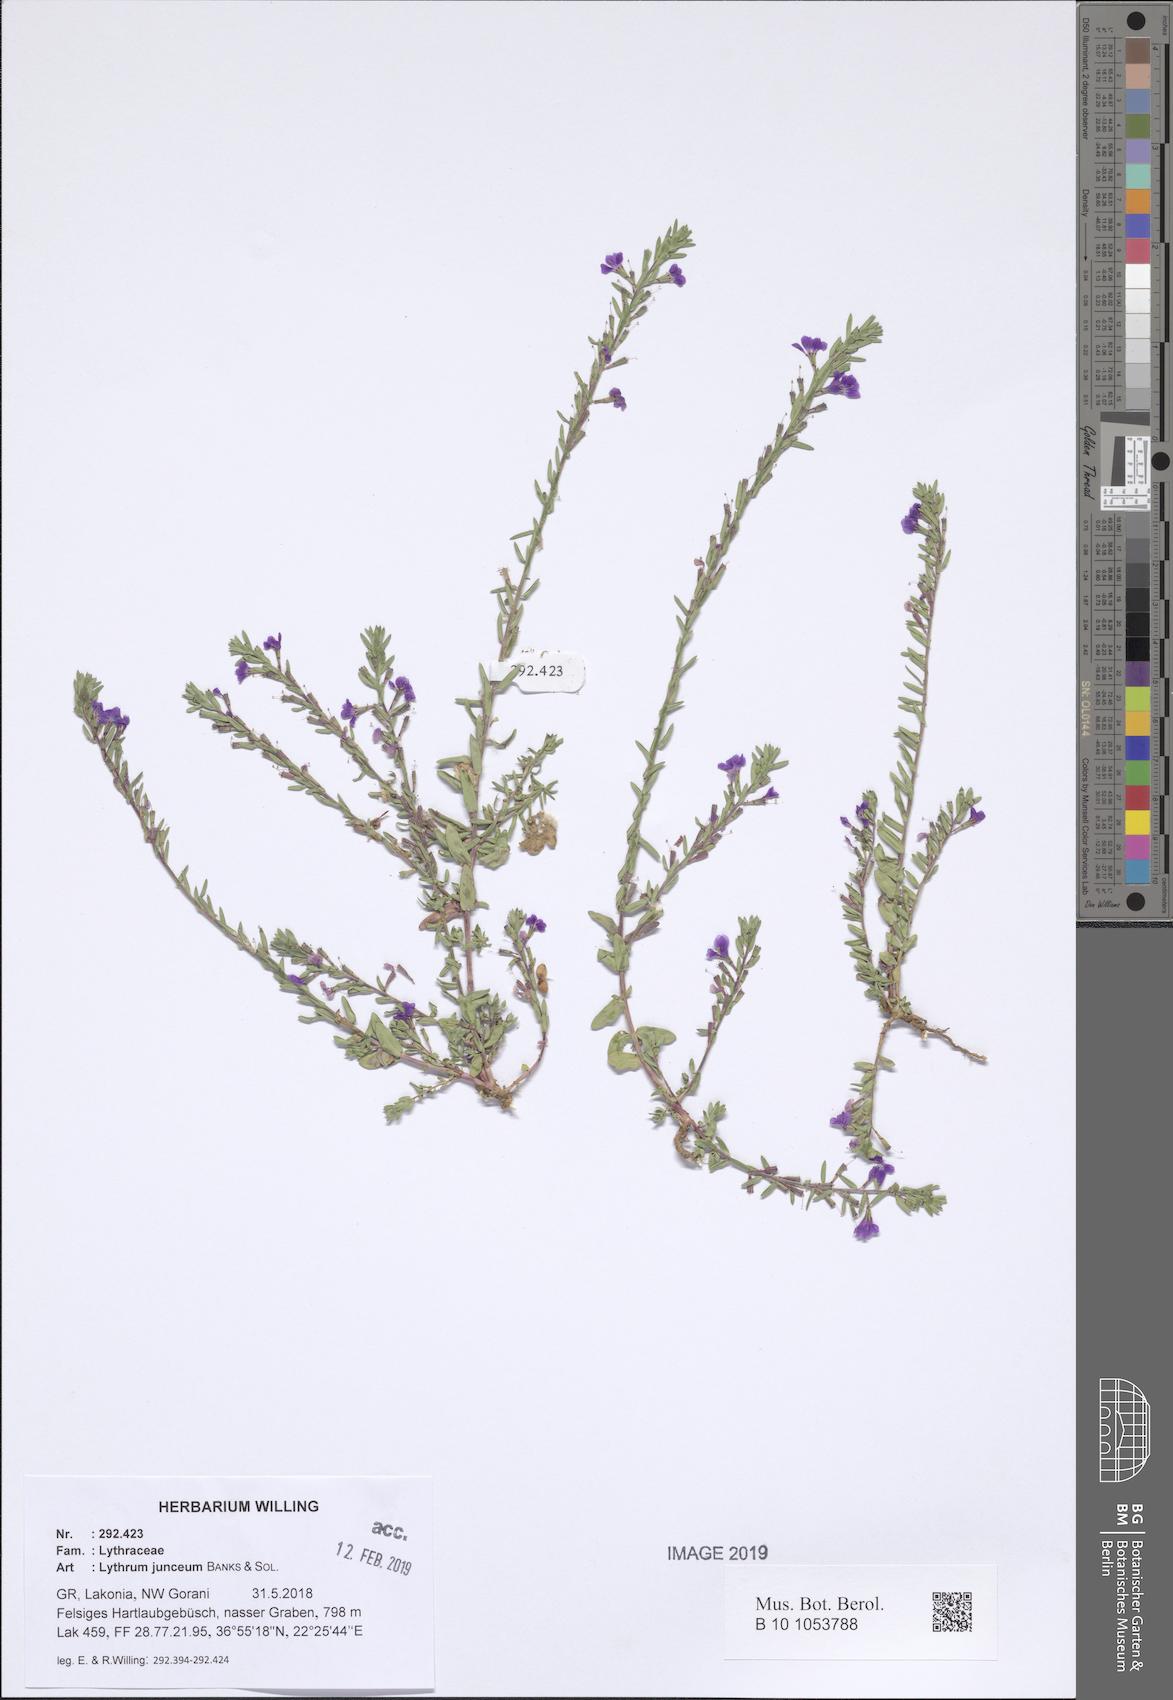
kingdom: Plantae
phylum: Tracheophyta
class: Magnoliopsida
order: Myrtales
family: Lythraceae
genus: Lythrum
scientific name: Lythrum junceum
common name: False grass-poly
